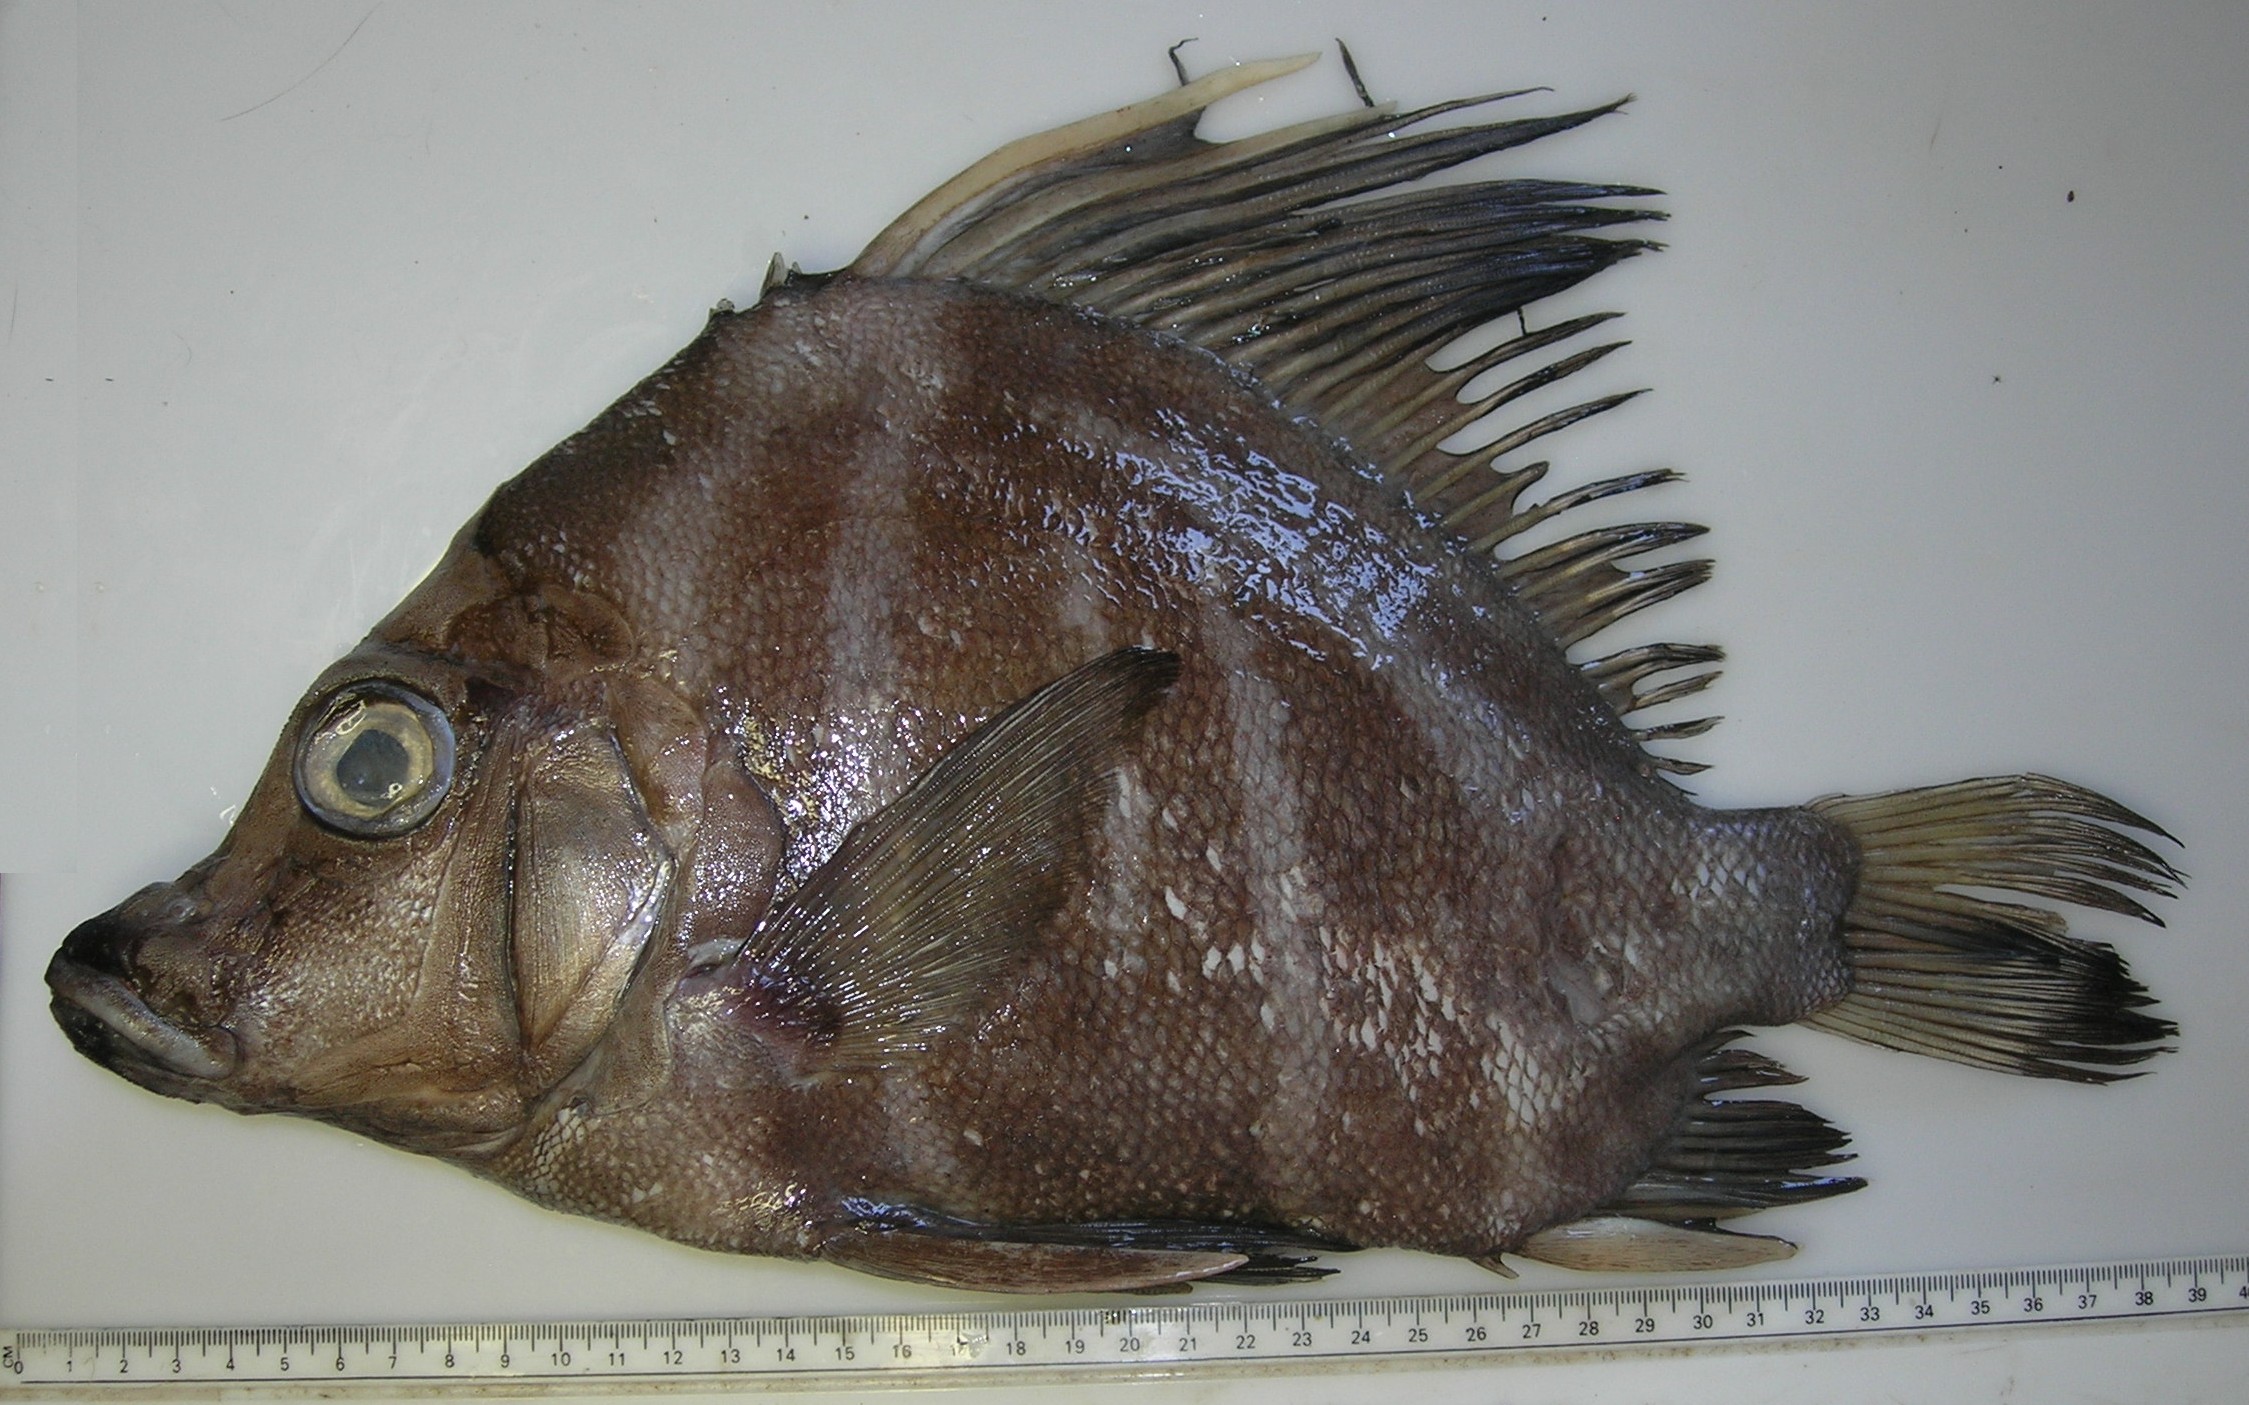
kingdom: Animalia
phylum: Chordata
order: Perciformes
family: Pentacerotidae
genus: Histiopterus
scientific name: Histiopterus typus
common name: Sailfin armourhead
